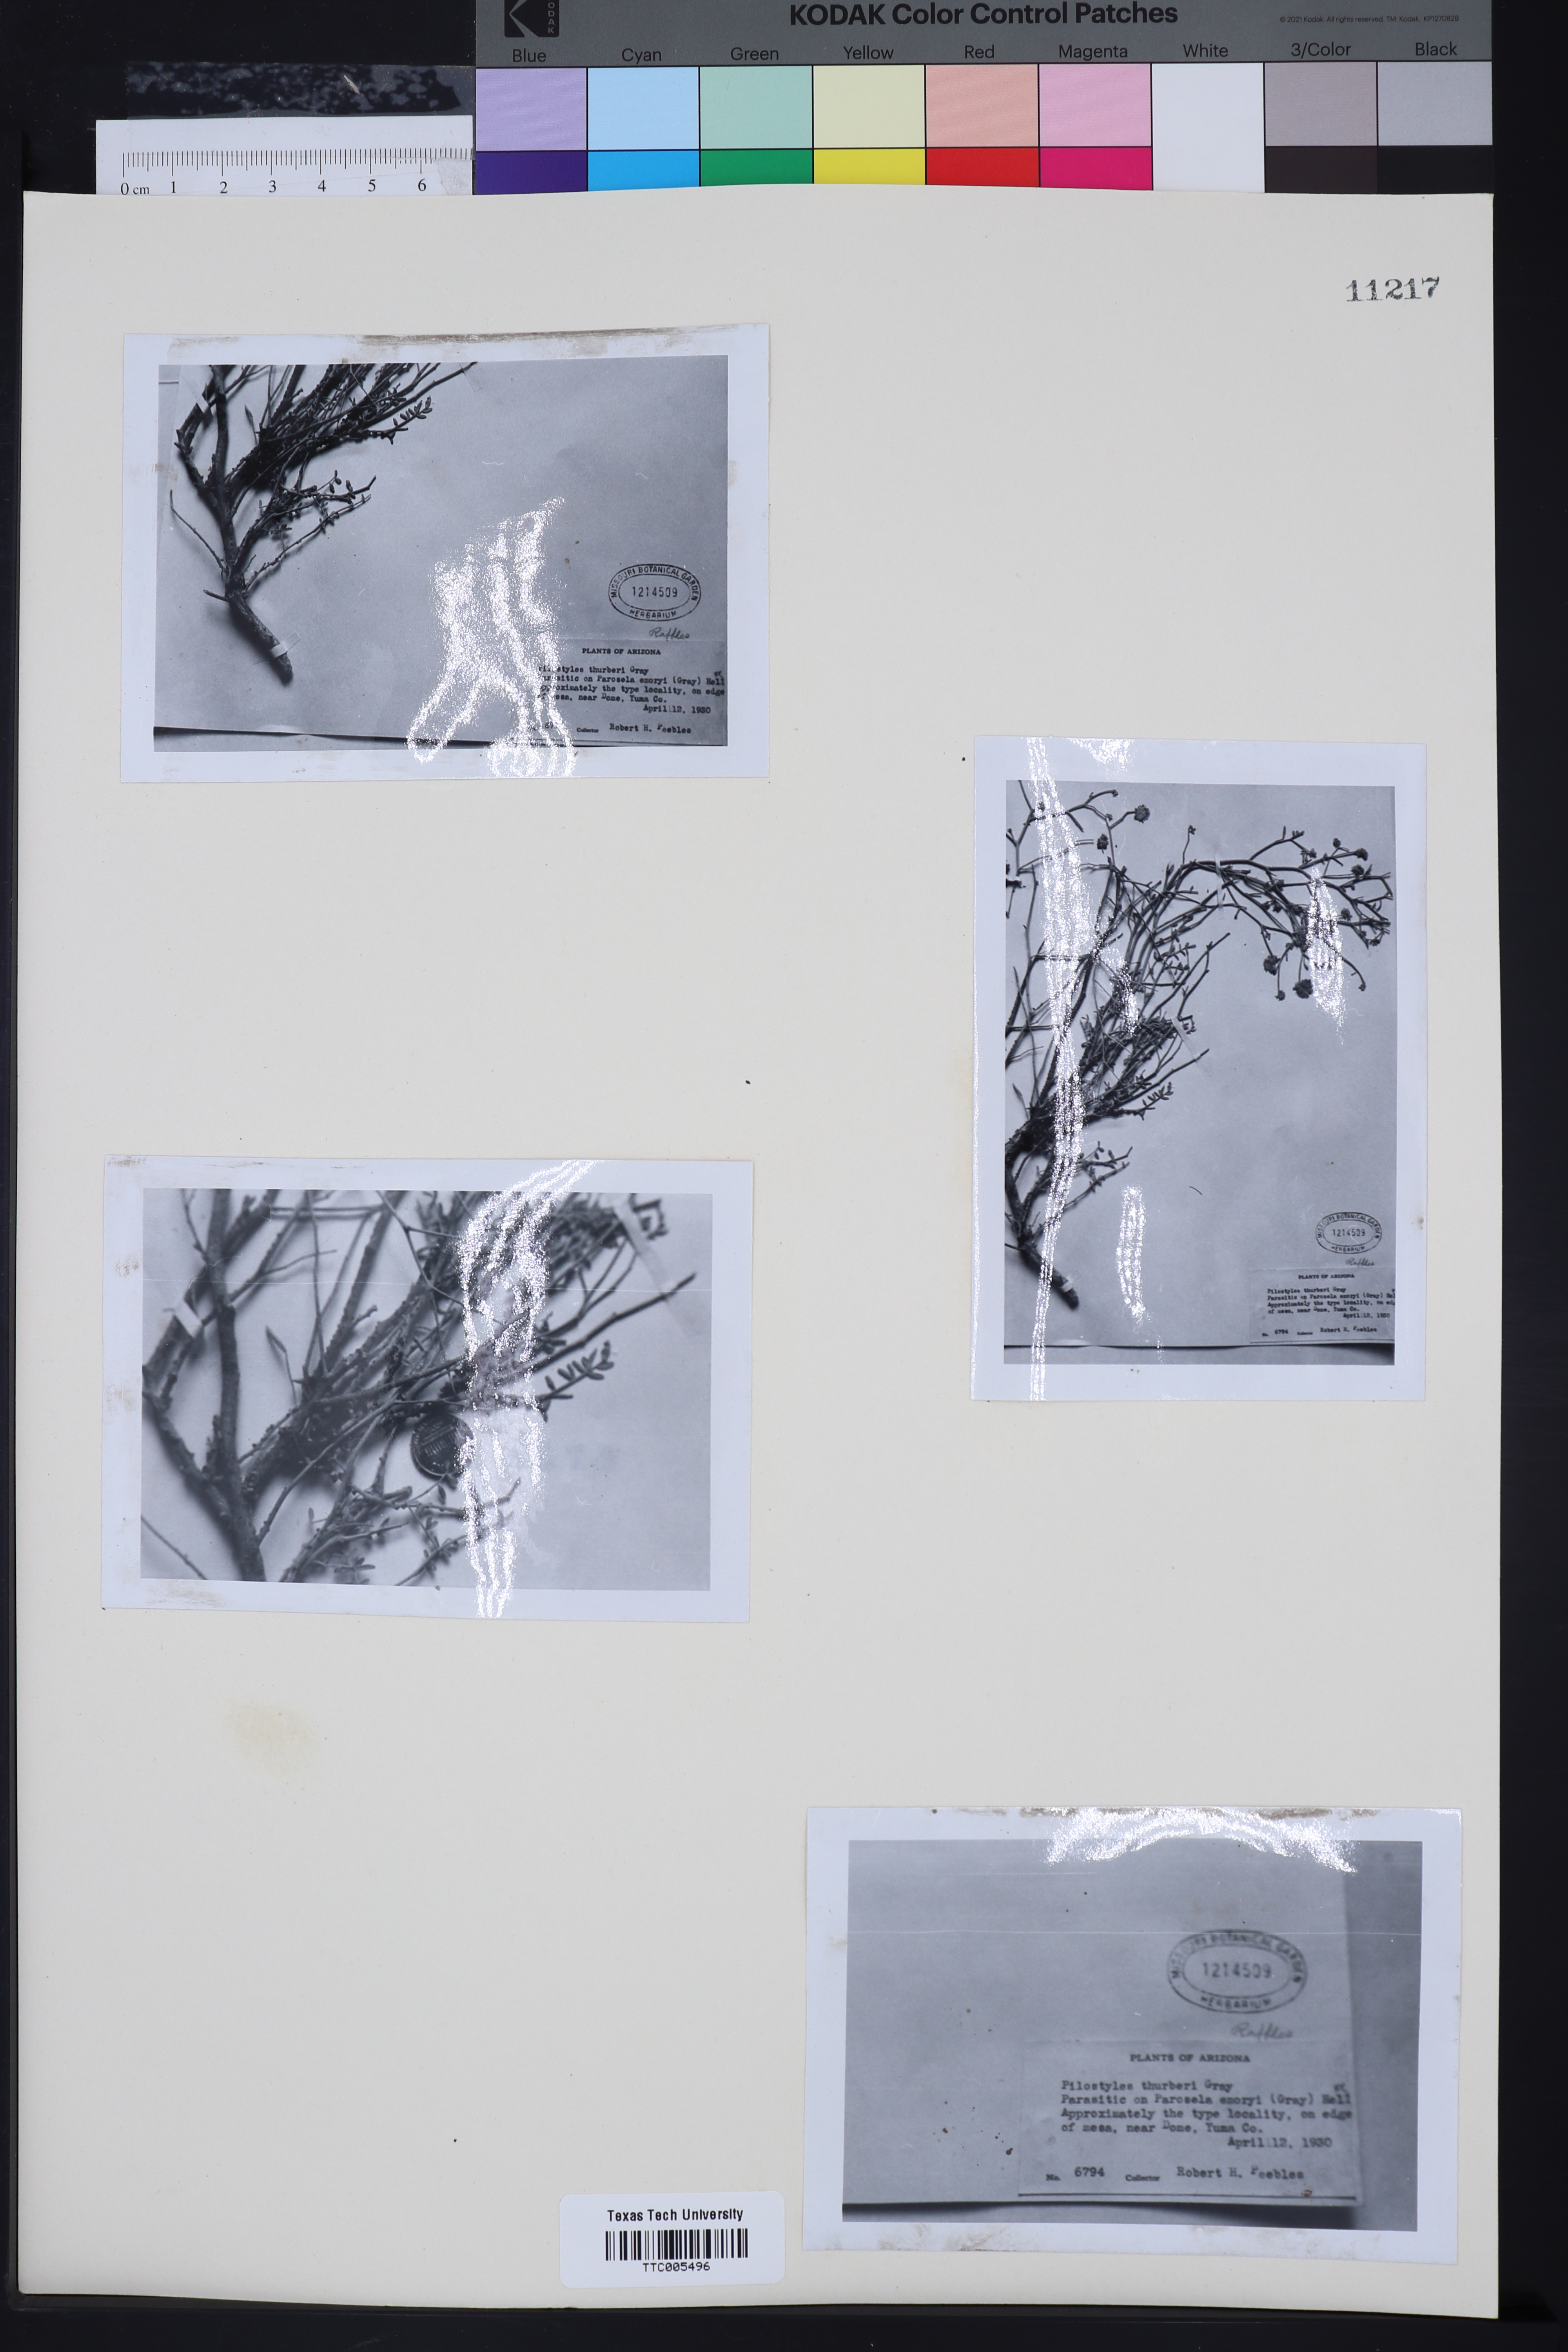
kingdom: Plantae
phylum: Tracheophyta
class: Magnoliopsida
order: Cucurbitales
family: Apodanthaceae
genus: Pilostyles
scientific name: Pilostyles thurberi
